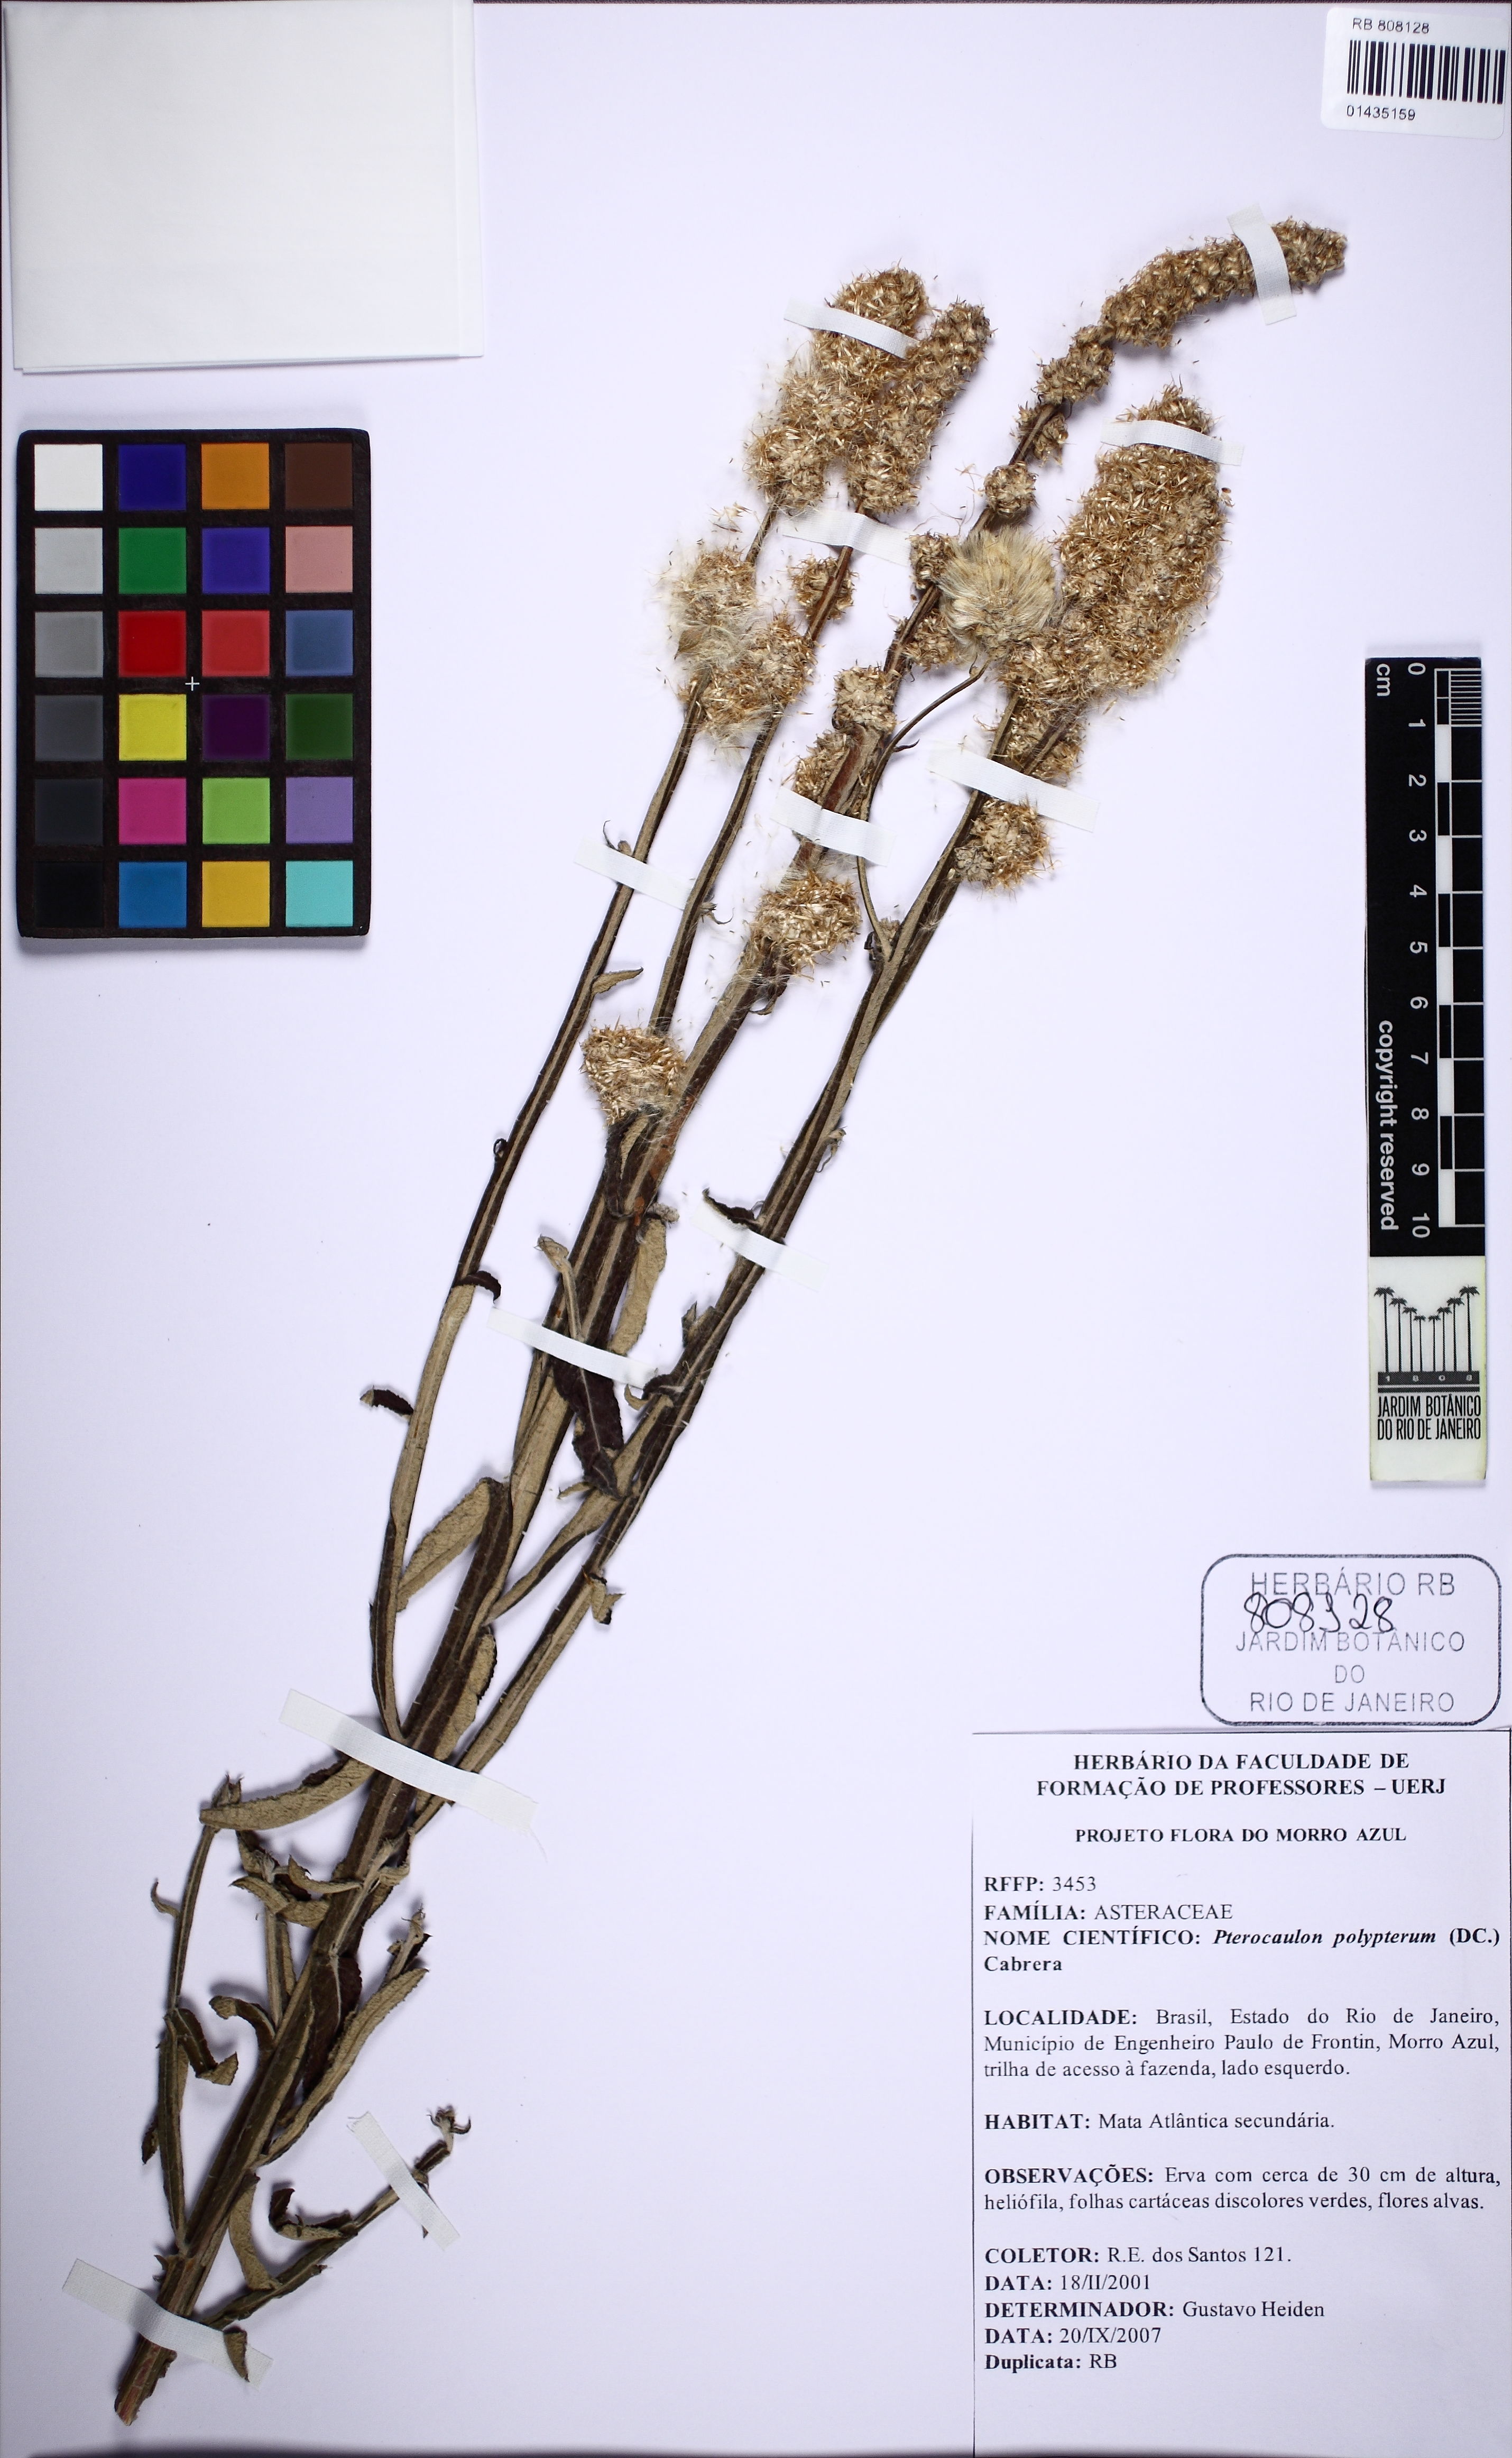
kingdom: Plantae
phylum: Tracheophyta
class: Magnoliopsida
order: Asterales
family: Asteraceae
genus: Pterocaulon
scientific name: Pterocaulon virgatum
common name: Wand blackroot
